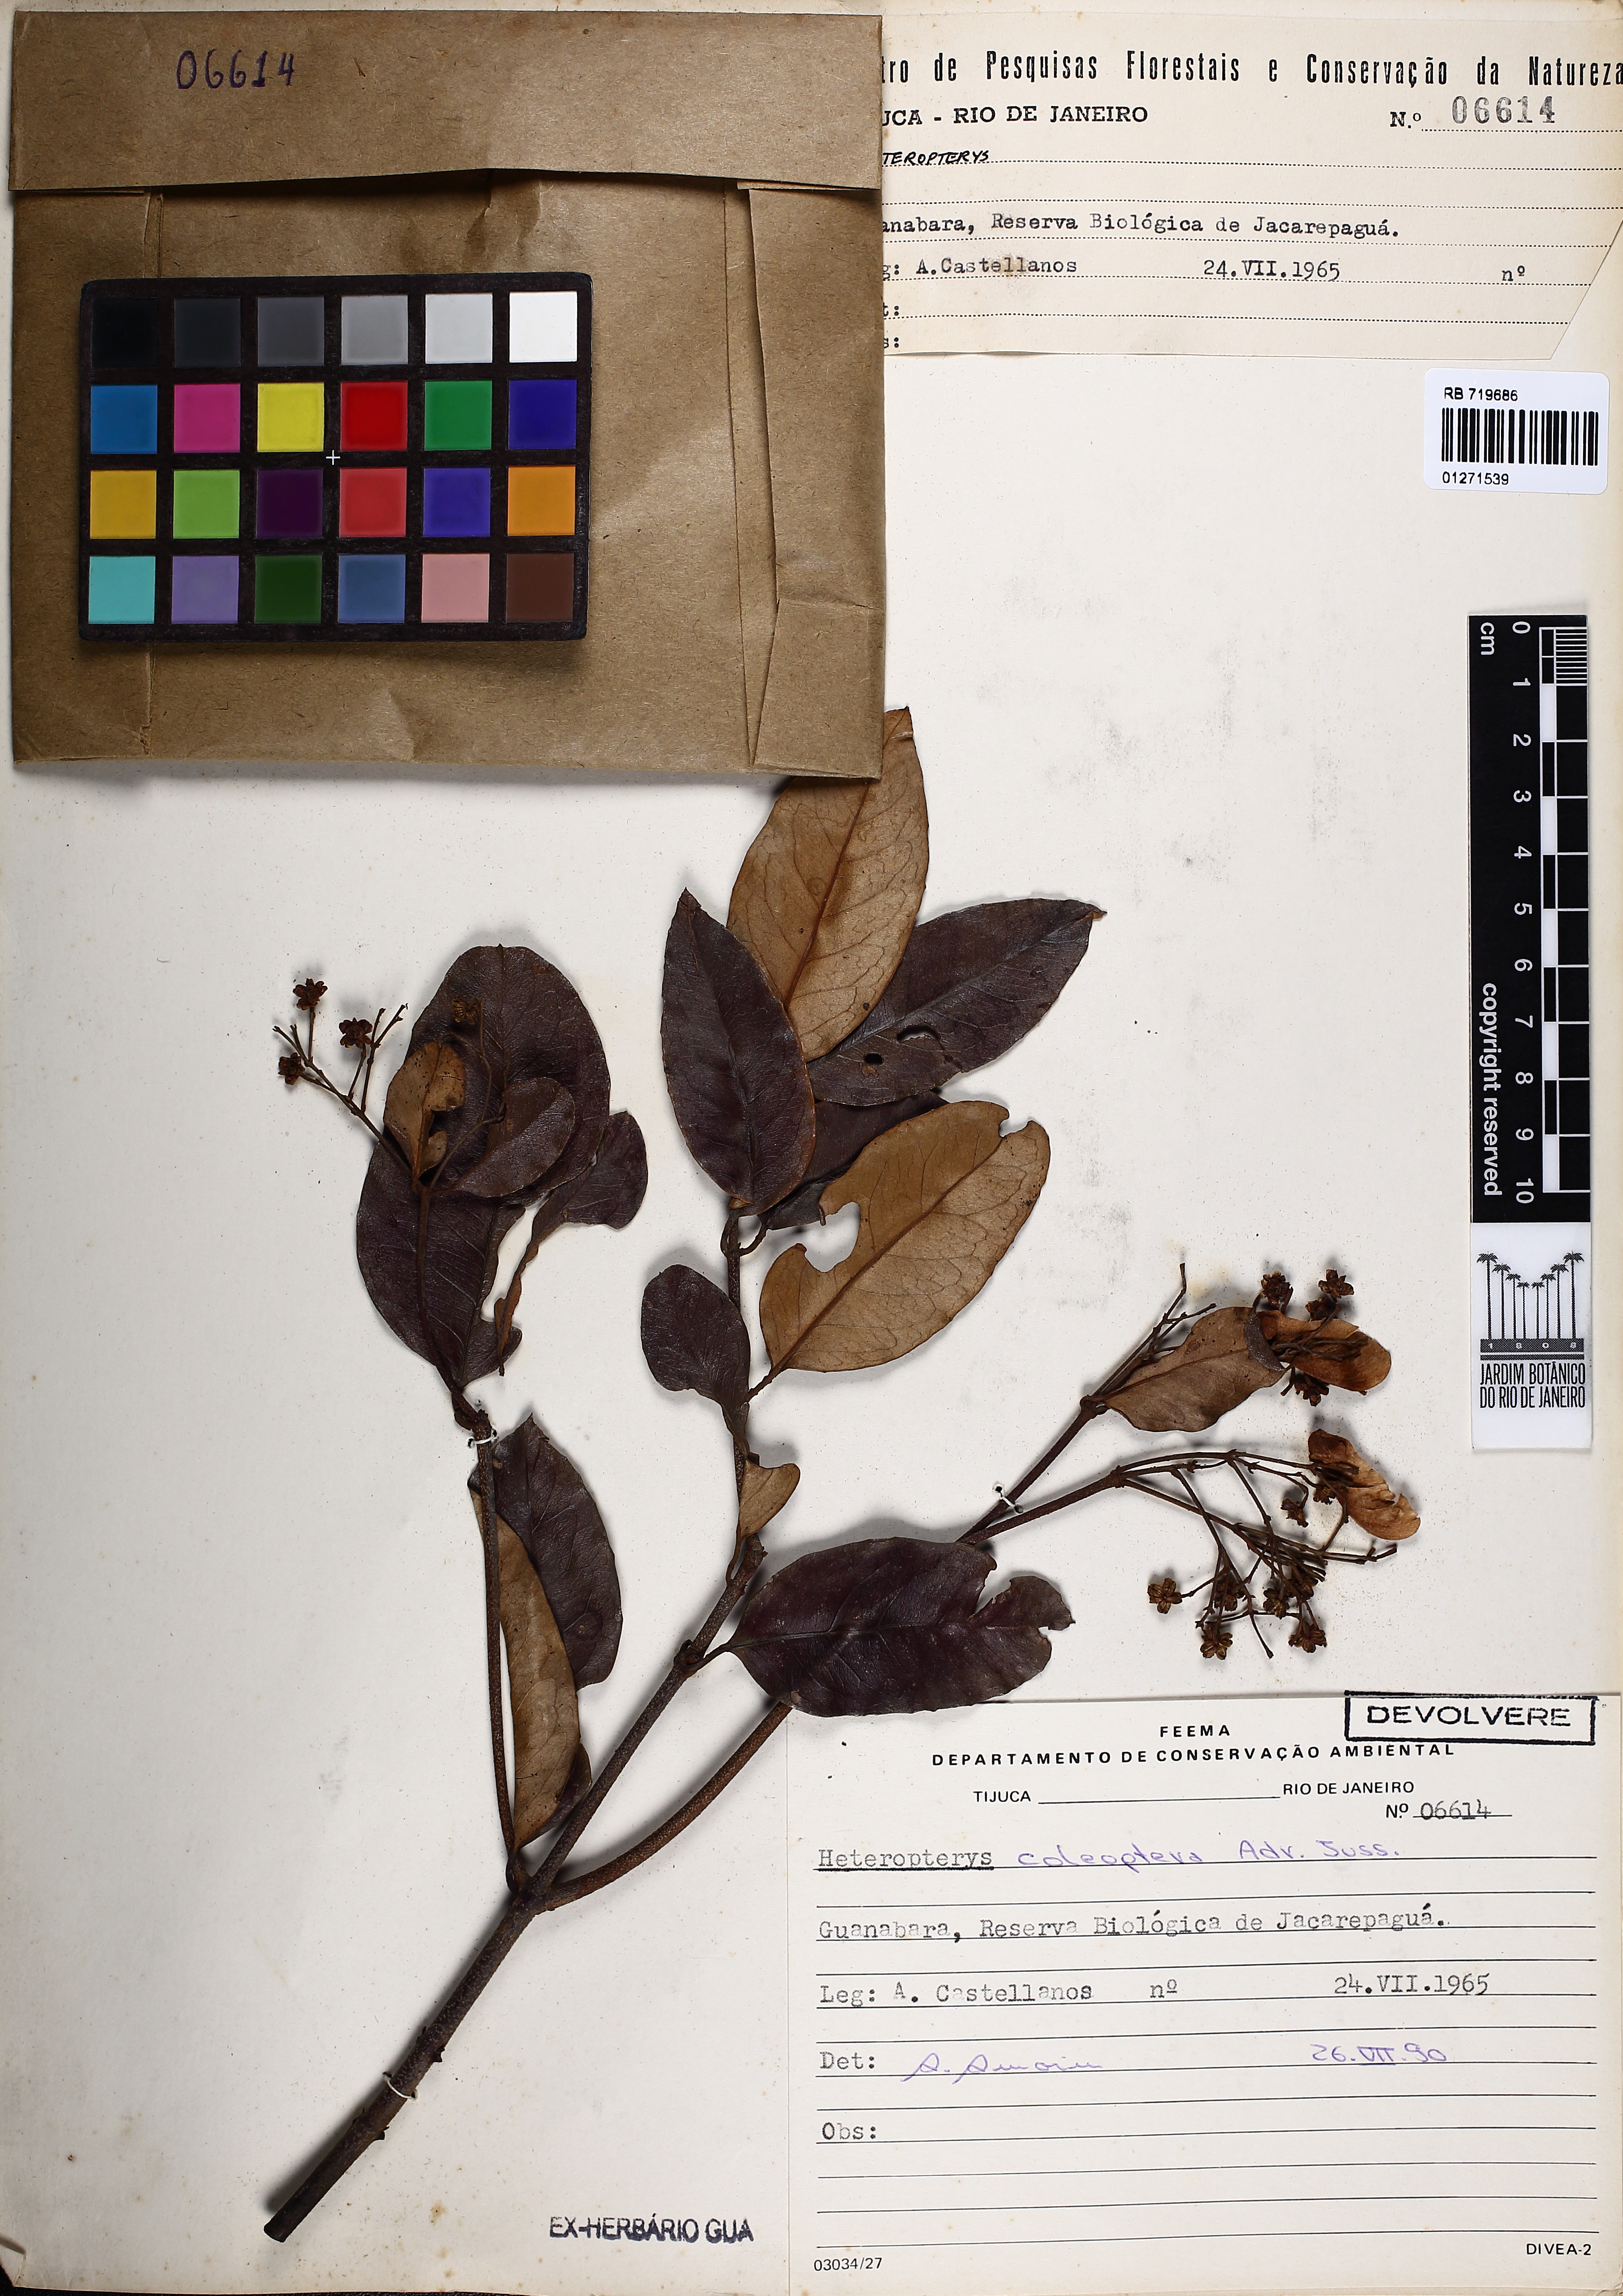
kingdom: Plantae
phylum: Tracheophyta
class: Magnoliopsida
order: Malpighiales
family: Malpighiaceae
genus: Heteropterys
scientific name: Heteropterys coleoptera
